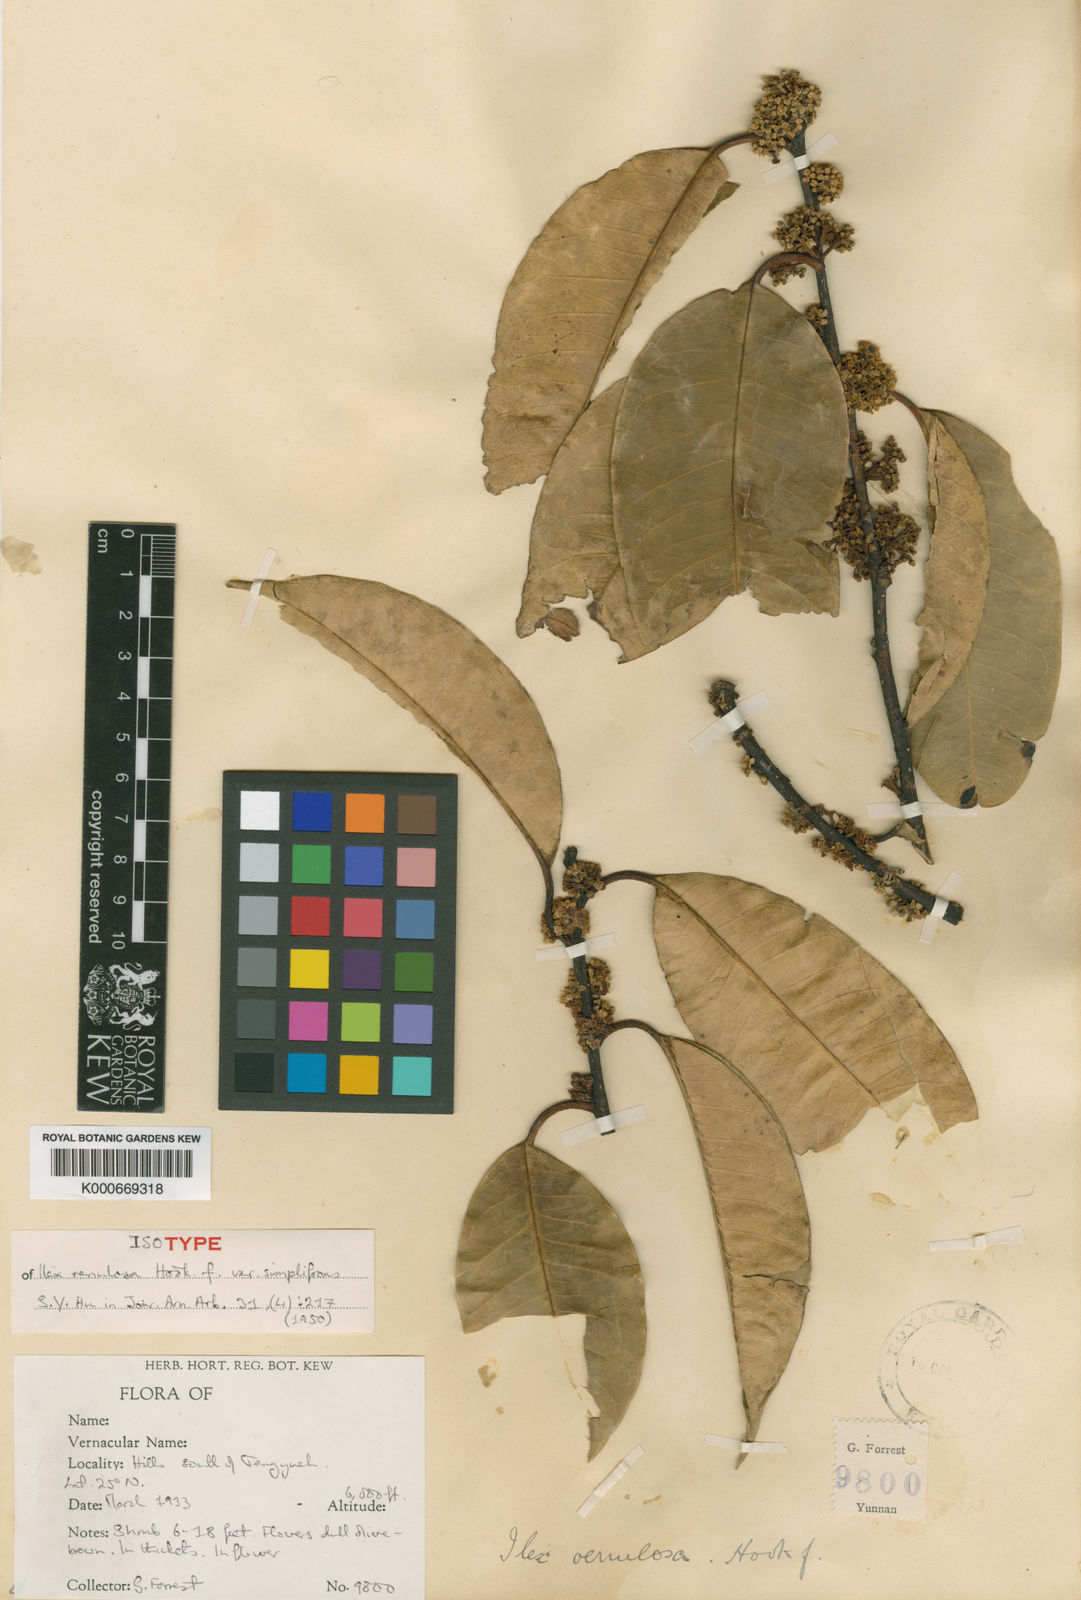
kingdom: Plantae
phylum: Tracheophyta
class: Magnoliopsida
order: Aquifoliales
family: Aquifoliaceae
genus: Ilex
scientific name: Ilex venulosa
